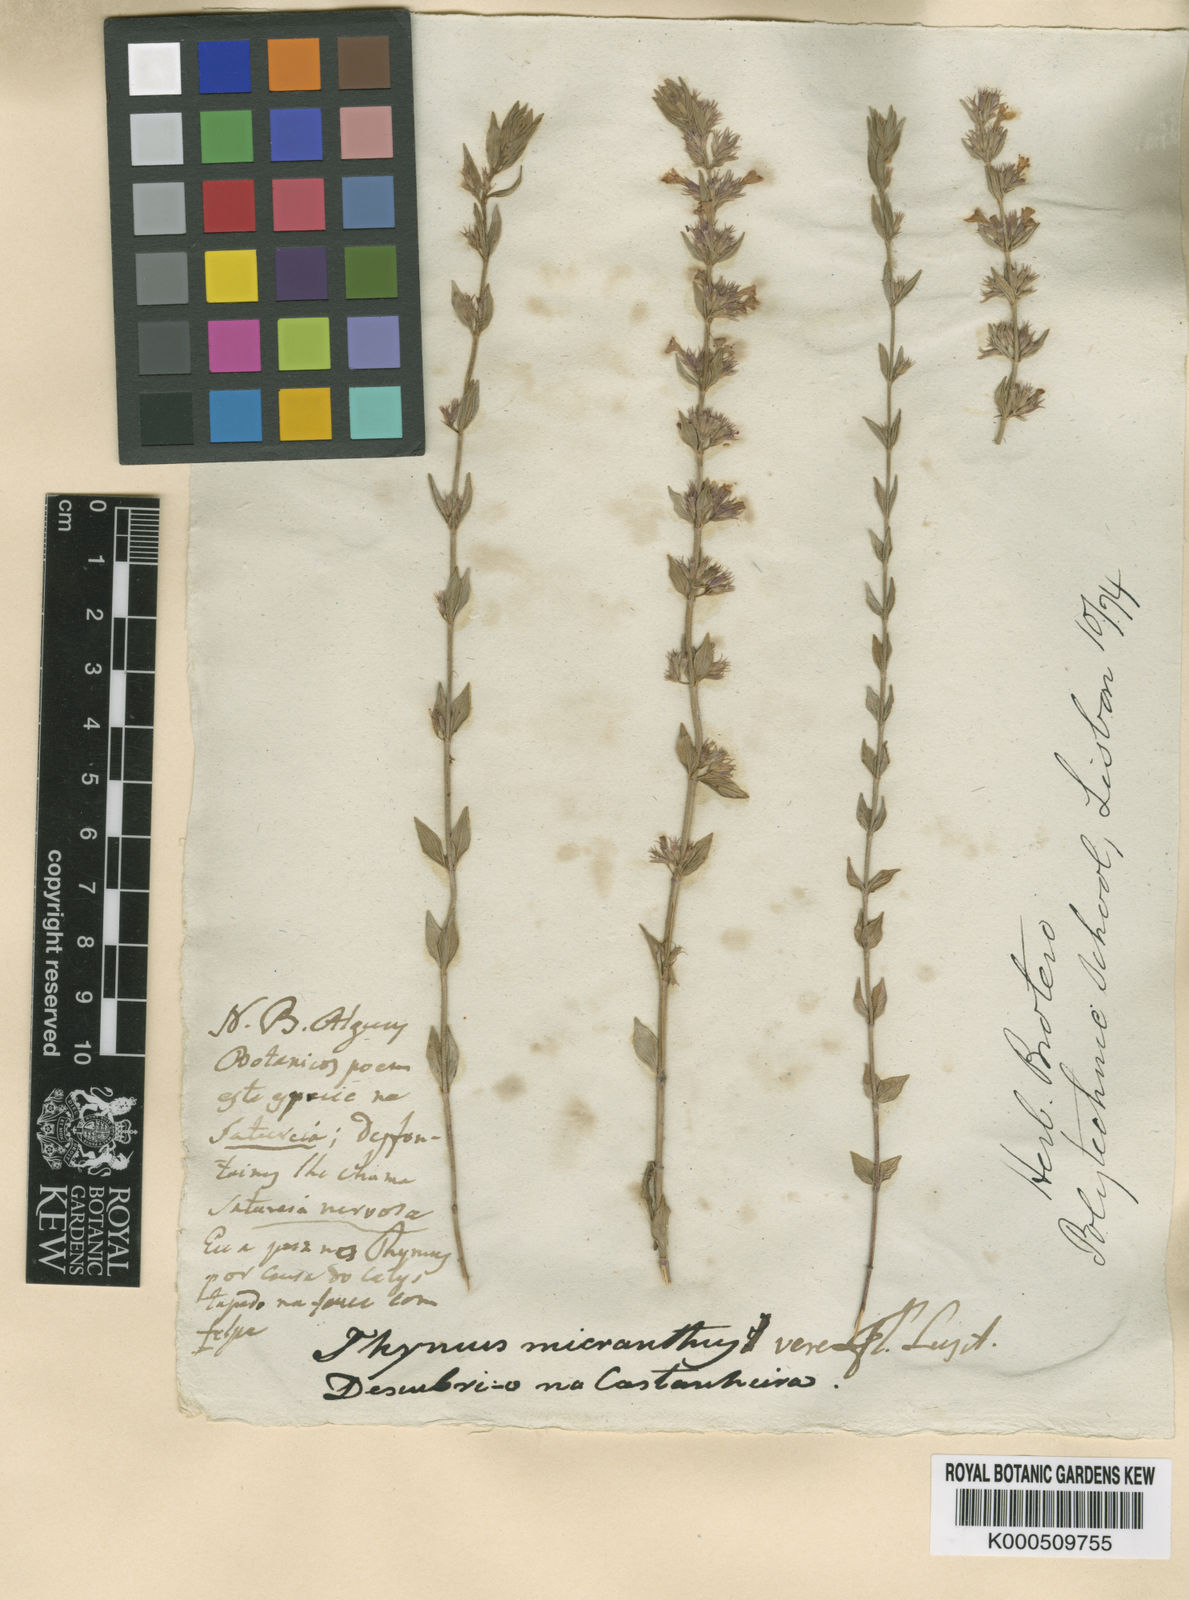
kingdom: Plantae
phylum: Tracheophyta
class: Magnoliopsida
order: Lamiales
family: Lamiaceae
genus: Micromeria
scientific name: Micromeria graeca
